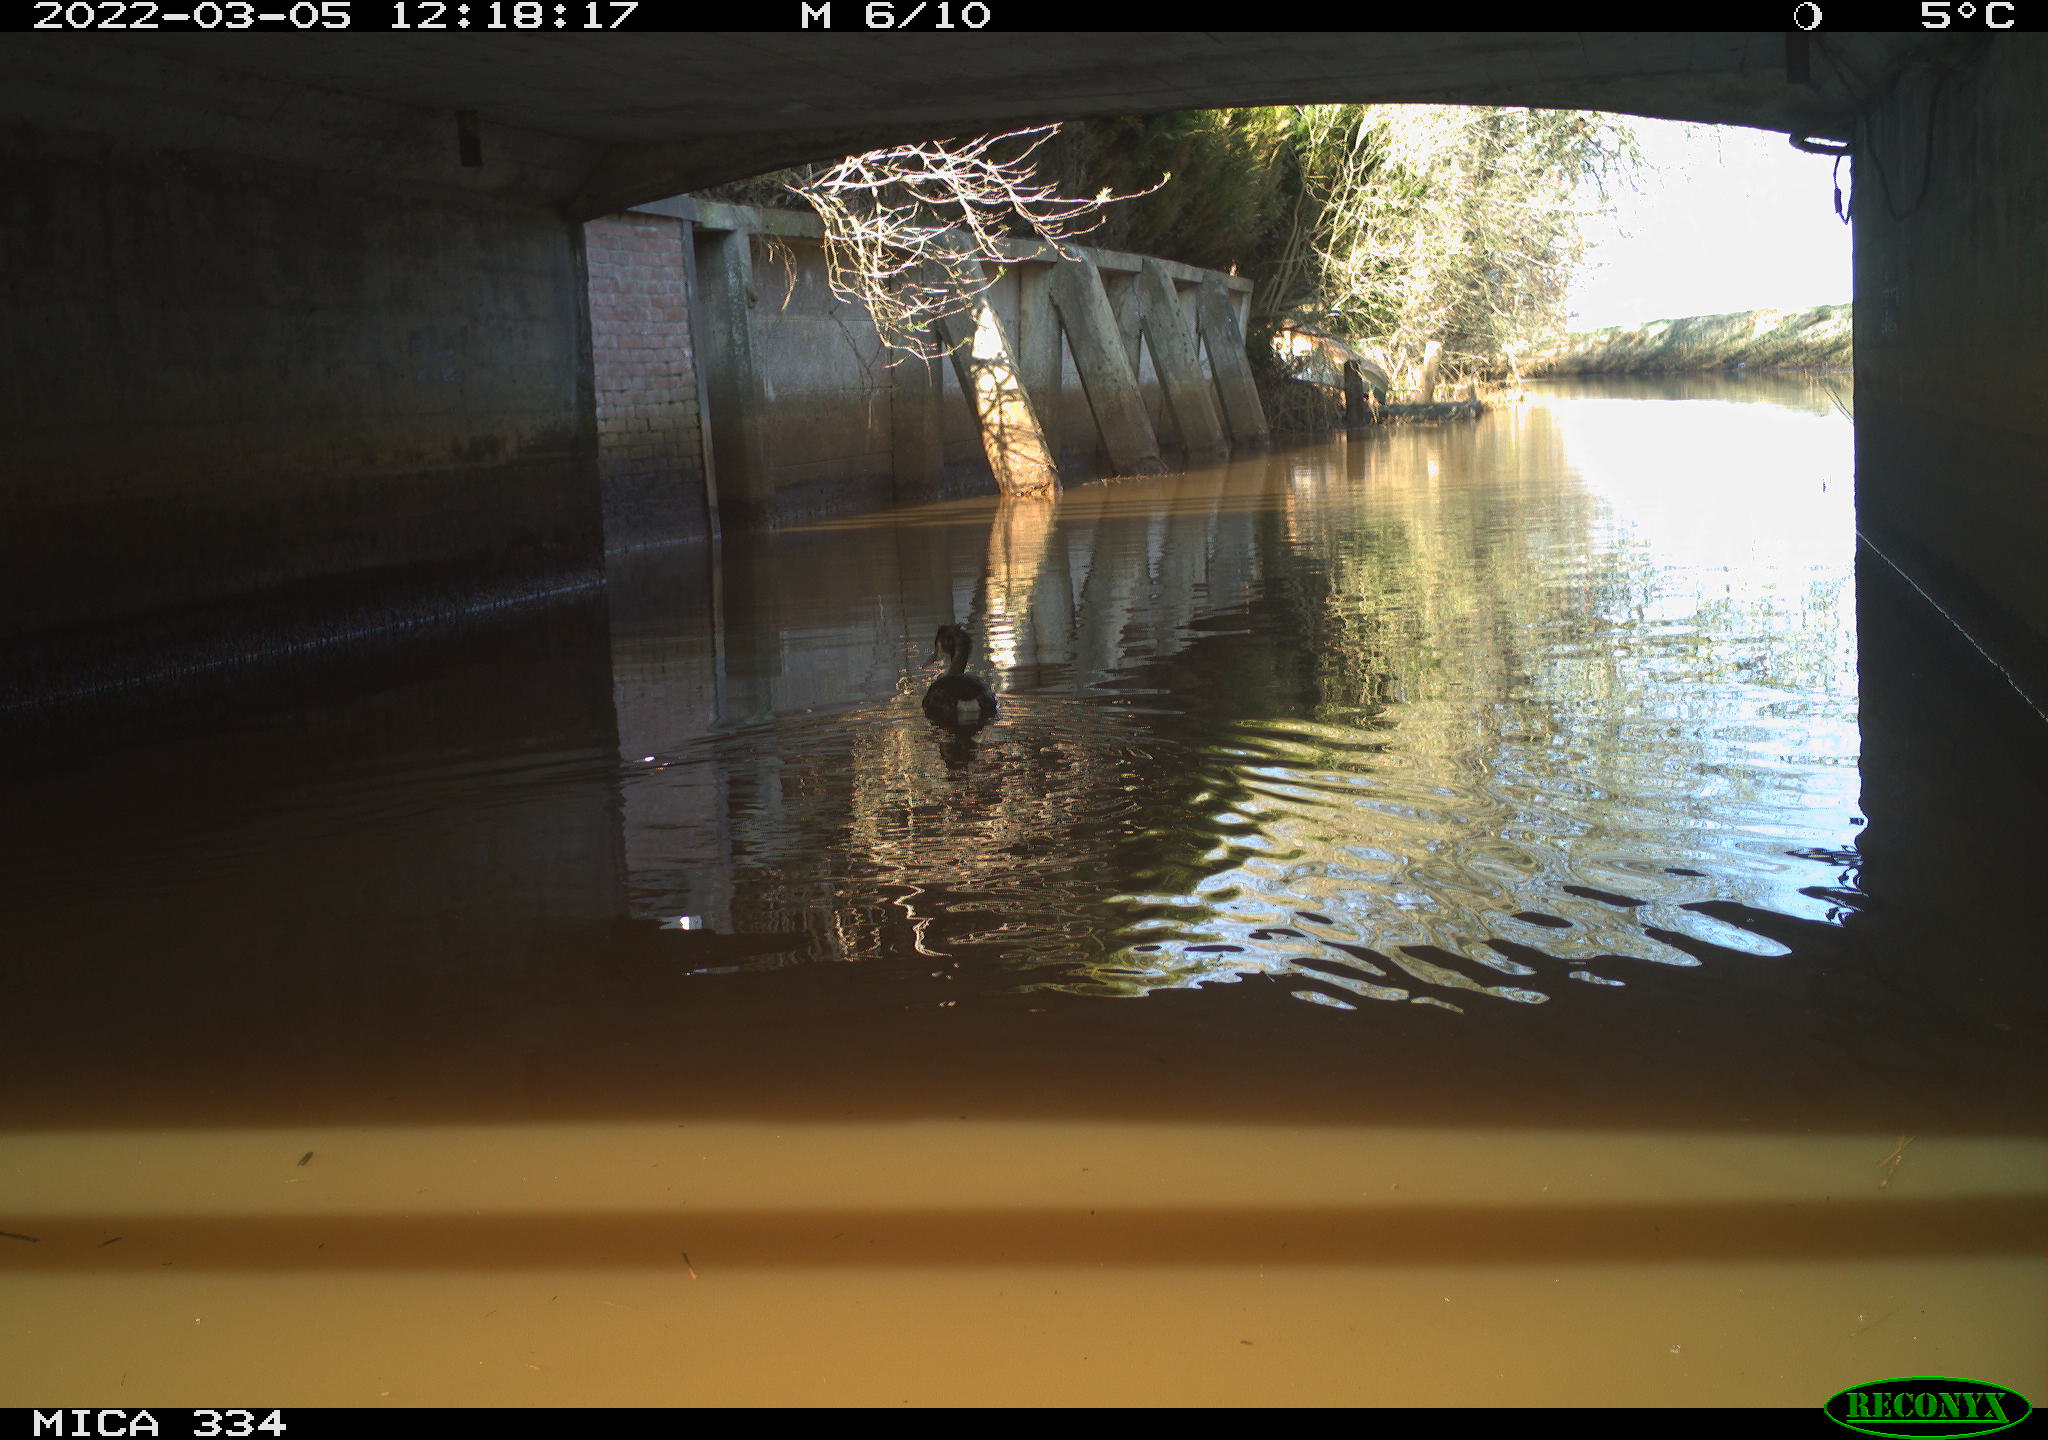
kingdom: Animalia
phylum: Chordata
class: Aves
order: Podicipediformes
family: Podicipedidae
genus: Podiceps
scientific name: Podiceps cristatus
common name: Great crested grebe
